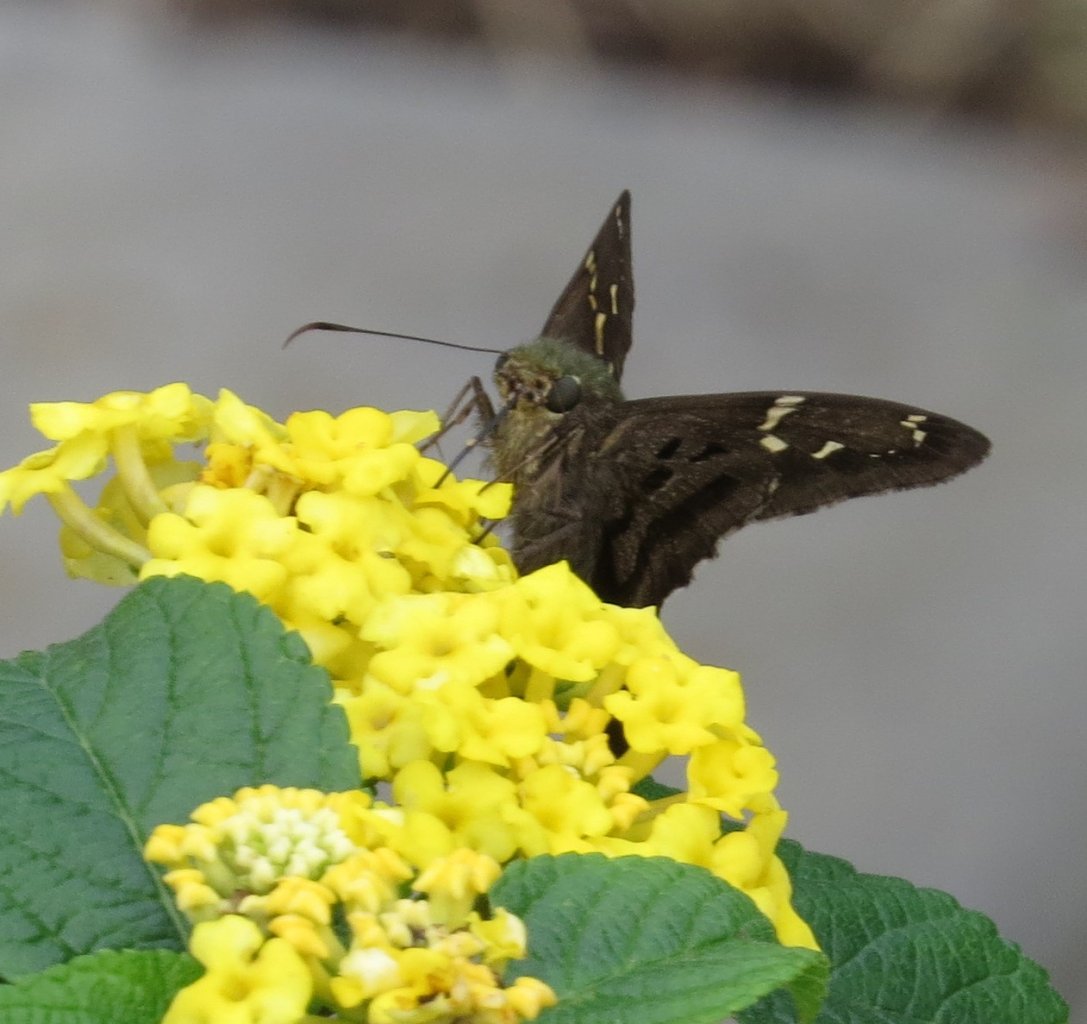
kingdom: Animalia
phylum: Arthropoda
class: Insecta
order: Lepidoptera
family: Hesperiidae
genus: Urbanus
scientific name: Urbanus proteus
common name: Long-tailed Skipper
